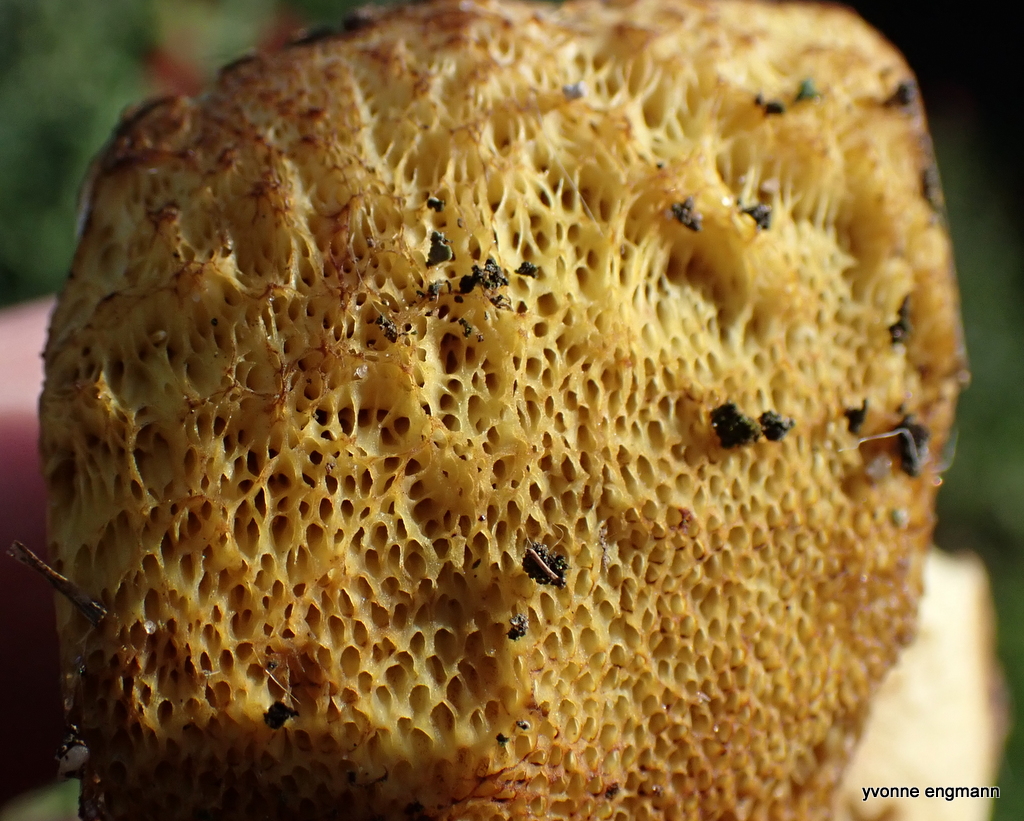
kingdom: Fungi
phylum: Basidiomycota
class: Agaricomycetes
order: Boletales
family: Boletaceae
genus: Butyriboletus
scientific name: Butyriboletus appendiculatus
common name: tenstokket rørhat
